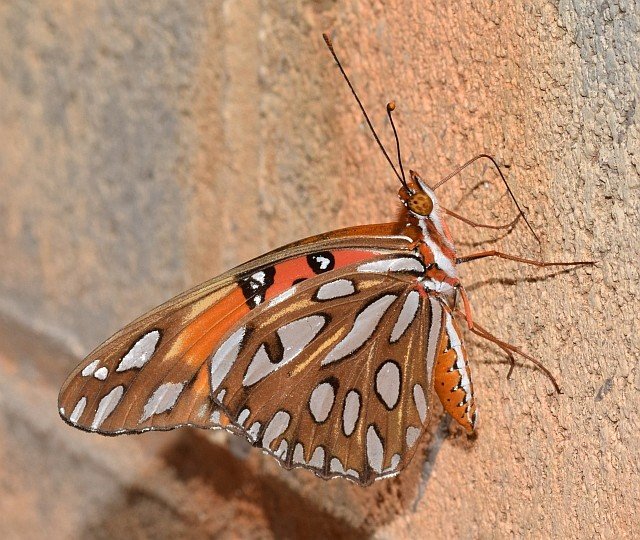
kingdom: Animalia
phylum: Arthropoda
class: Insecta
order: Lepidoptera
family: Nymphalidae
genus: Dione
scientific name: Dione vanillae
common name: Gulf Fritillary
